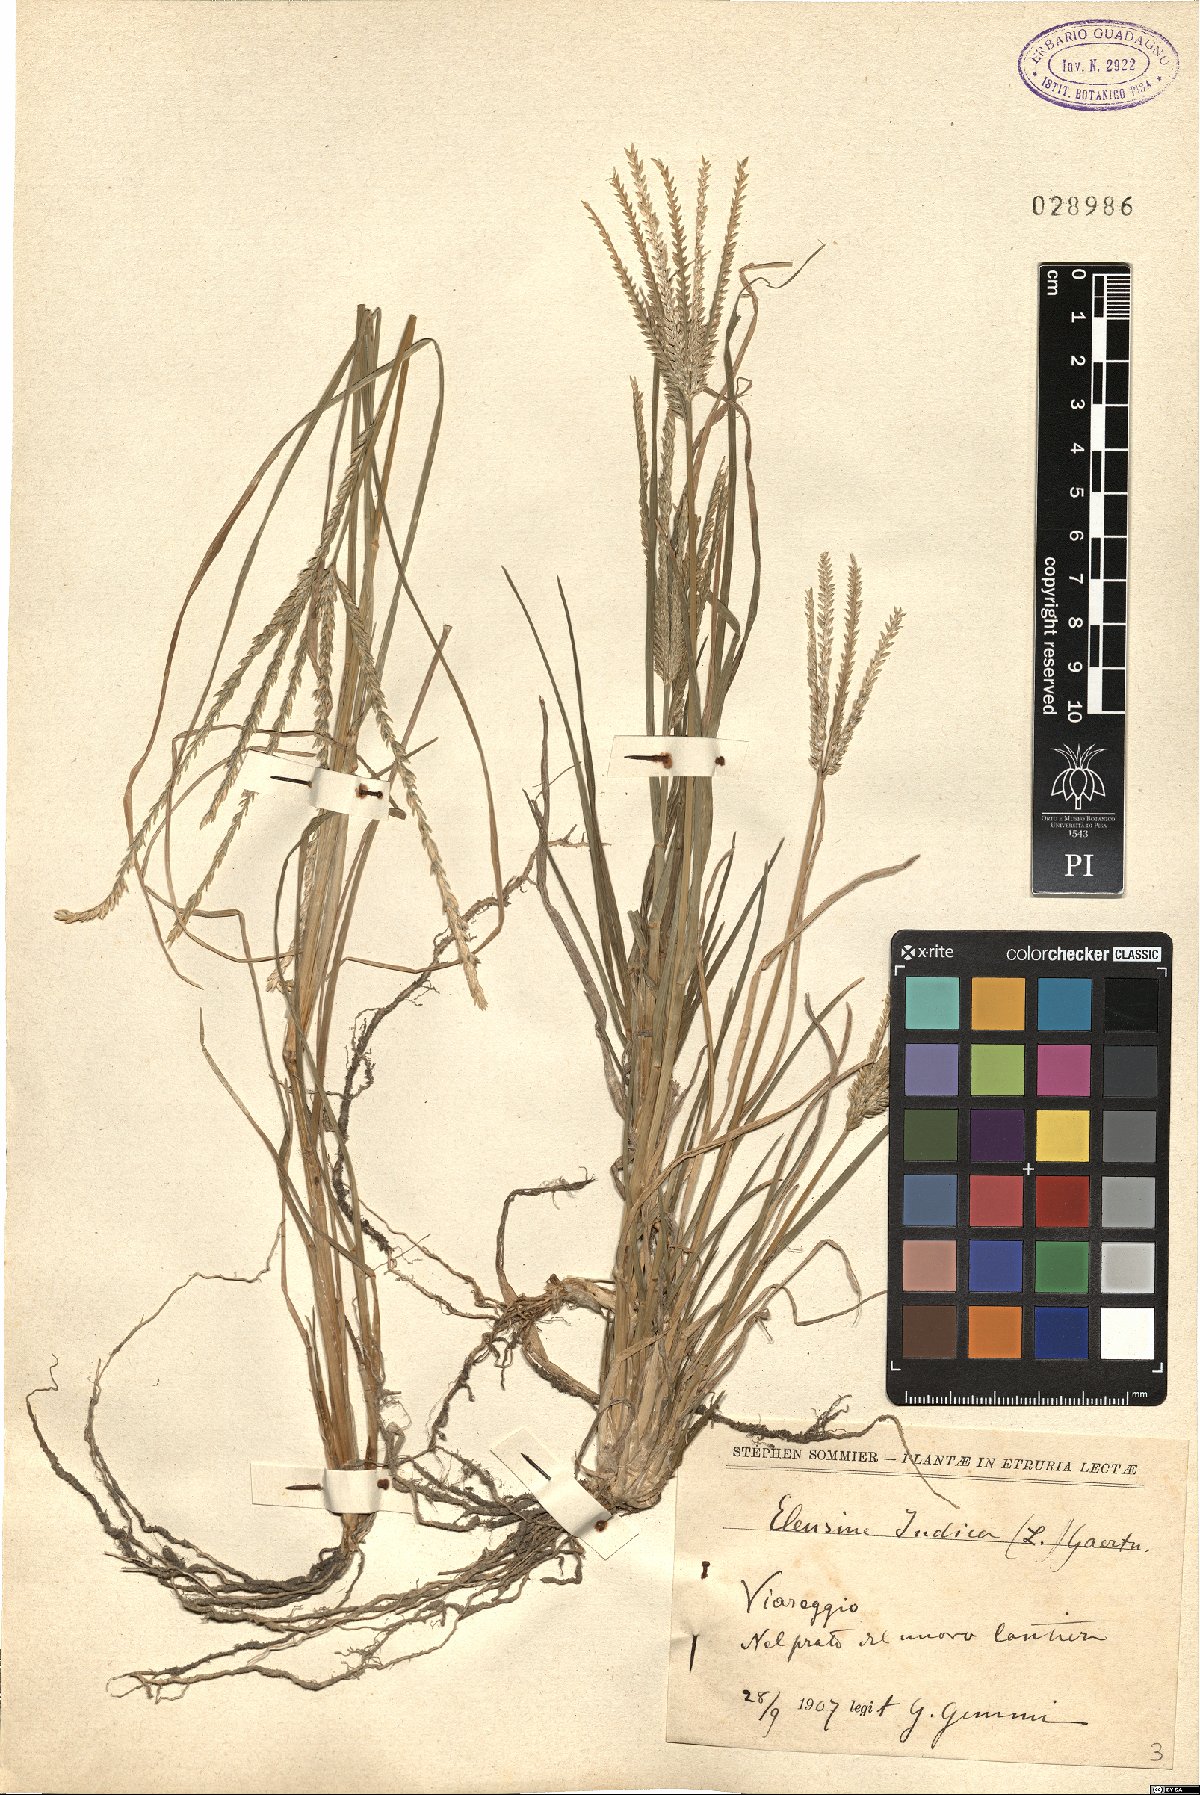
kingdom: Plantae
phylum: Tracheophyta
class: Liliopsida
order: Poales
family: Poaceae
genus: Eleusine
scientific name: Eleusine indica
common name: Yard-grass
